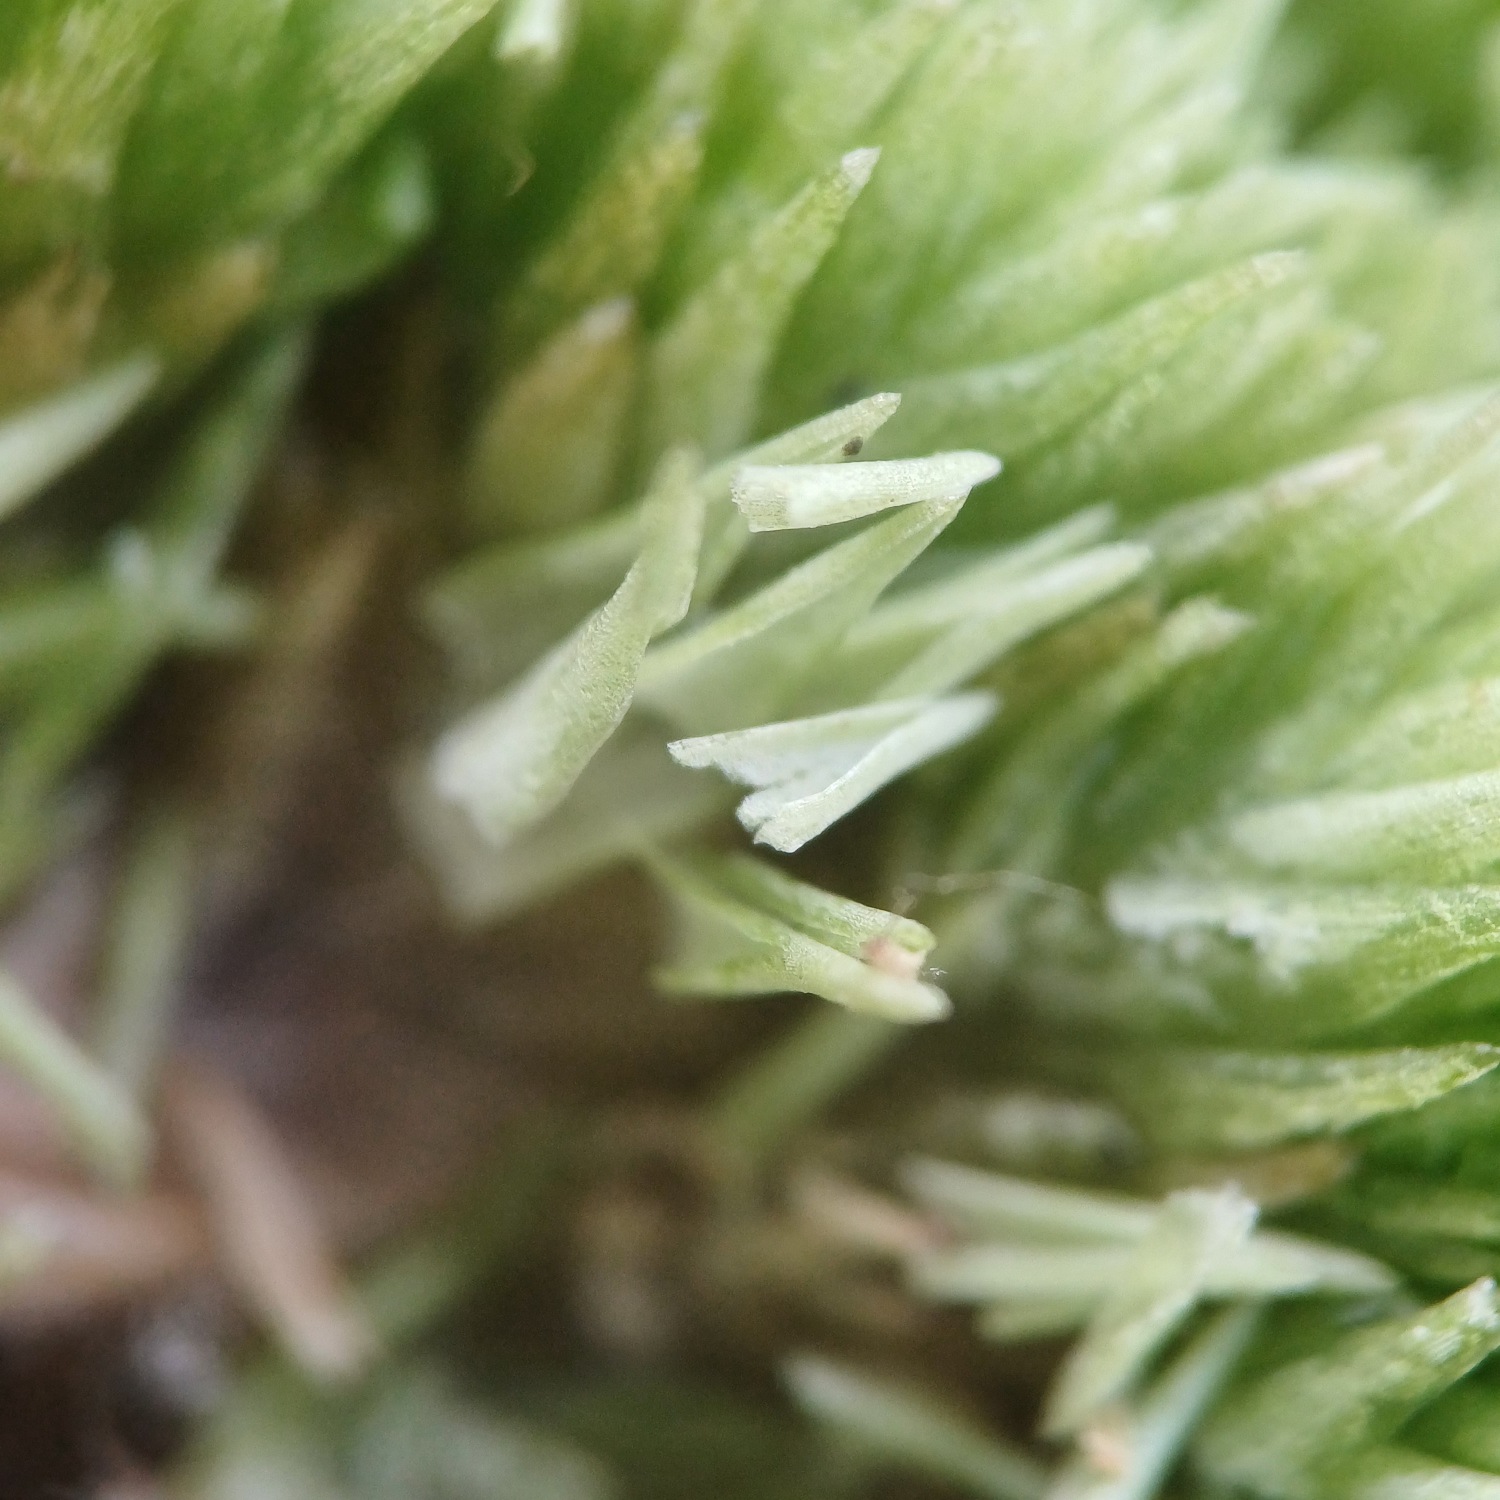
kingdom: Plantae
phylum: Bryophyta
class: Bryopsida
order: Dicranales
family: Leucobryaceae
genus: Leucobryum
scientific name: Leucobryum glaucum
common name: Almindelig hvidmos
